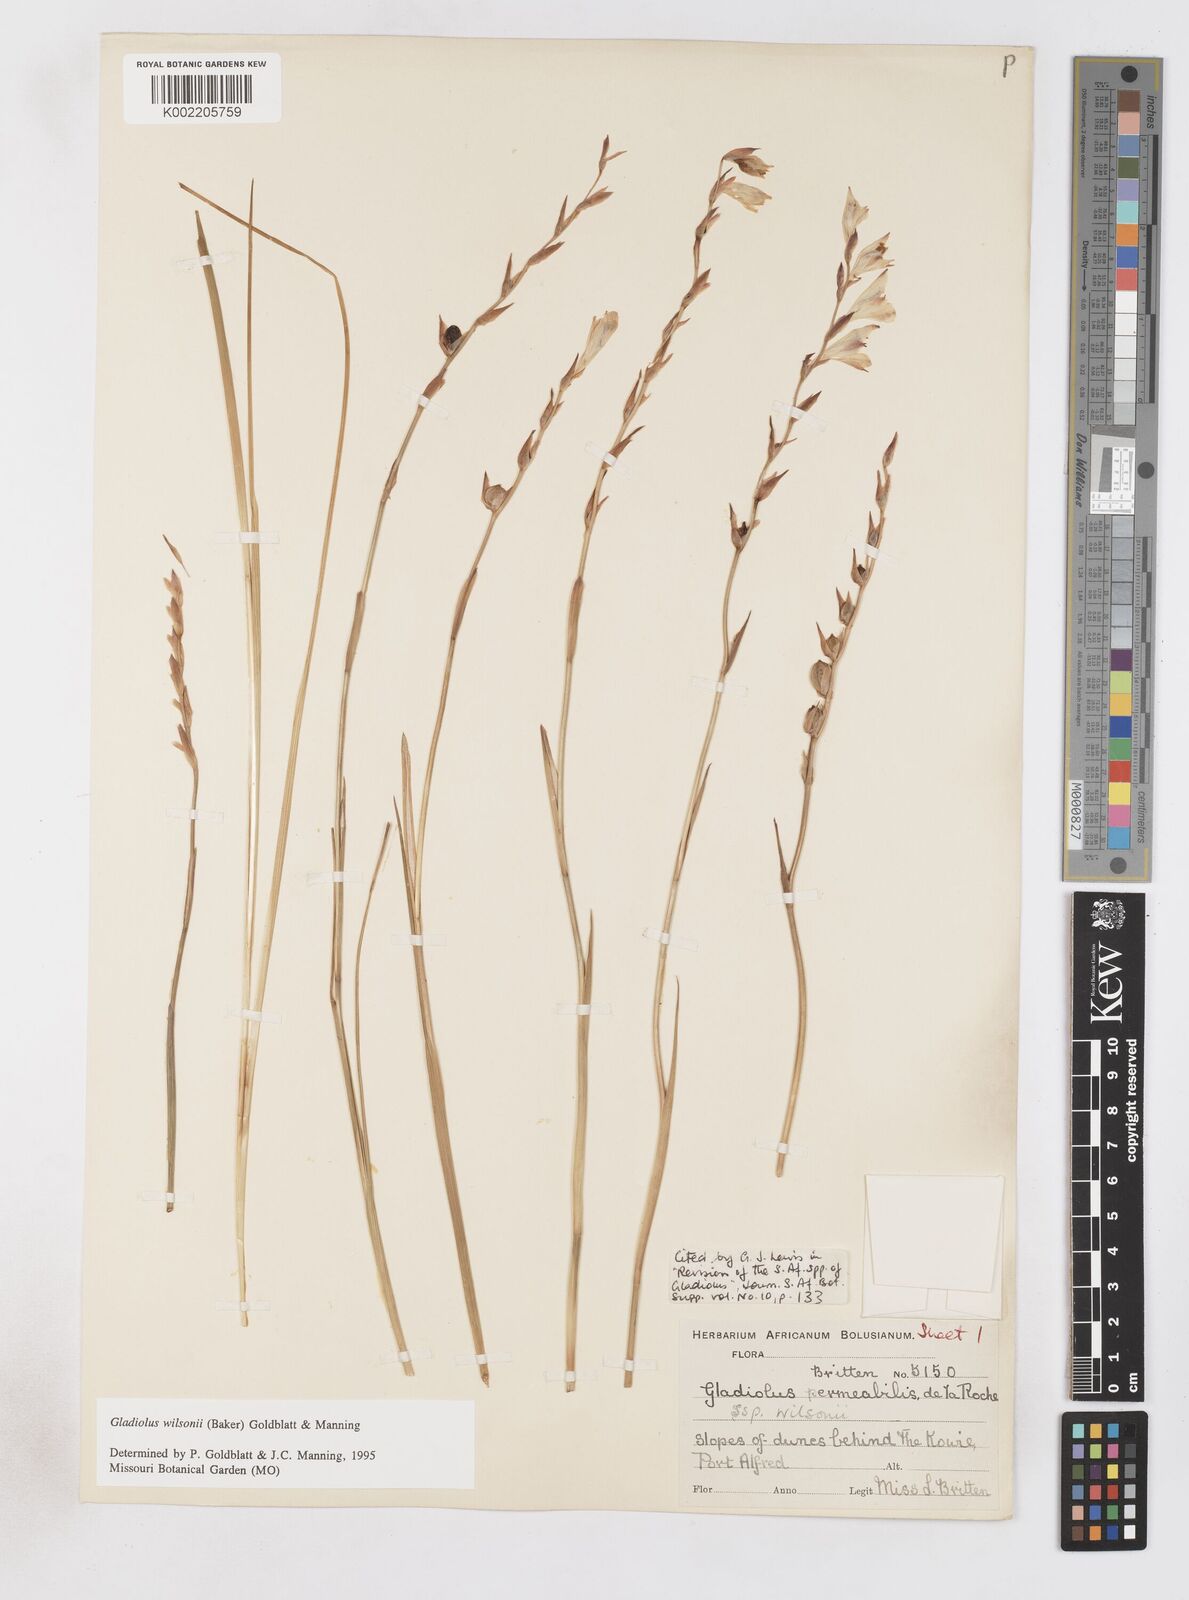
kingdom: Plantae
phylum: Tracheophyta
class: Liliopsida
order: Asparagales
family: Iridaceae
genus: Gladiolus
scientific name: Gladiolus wilsonii
